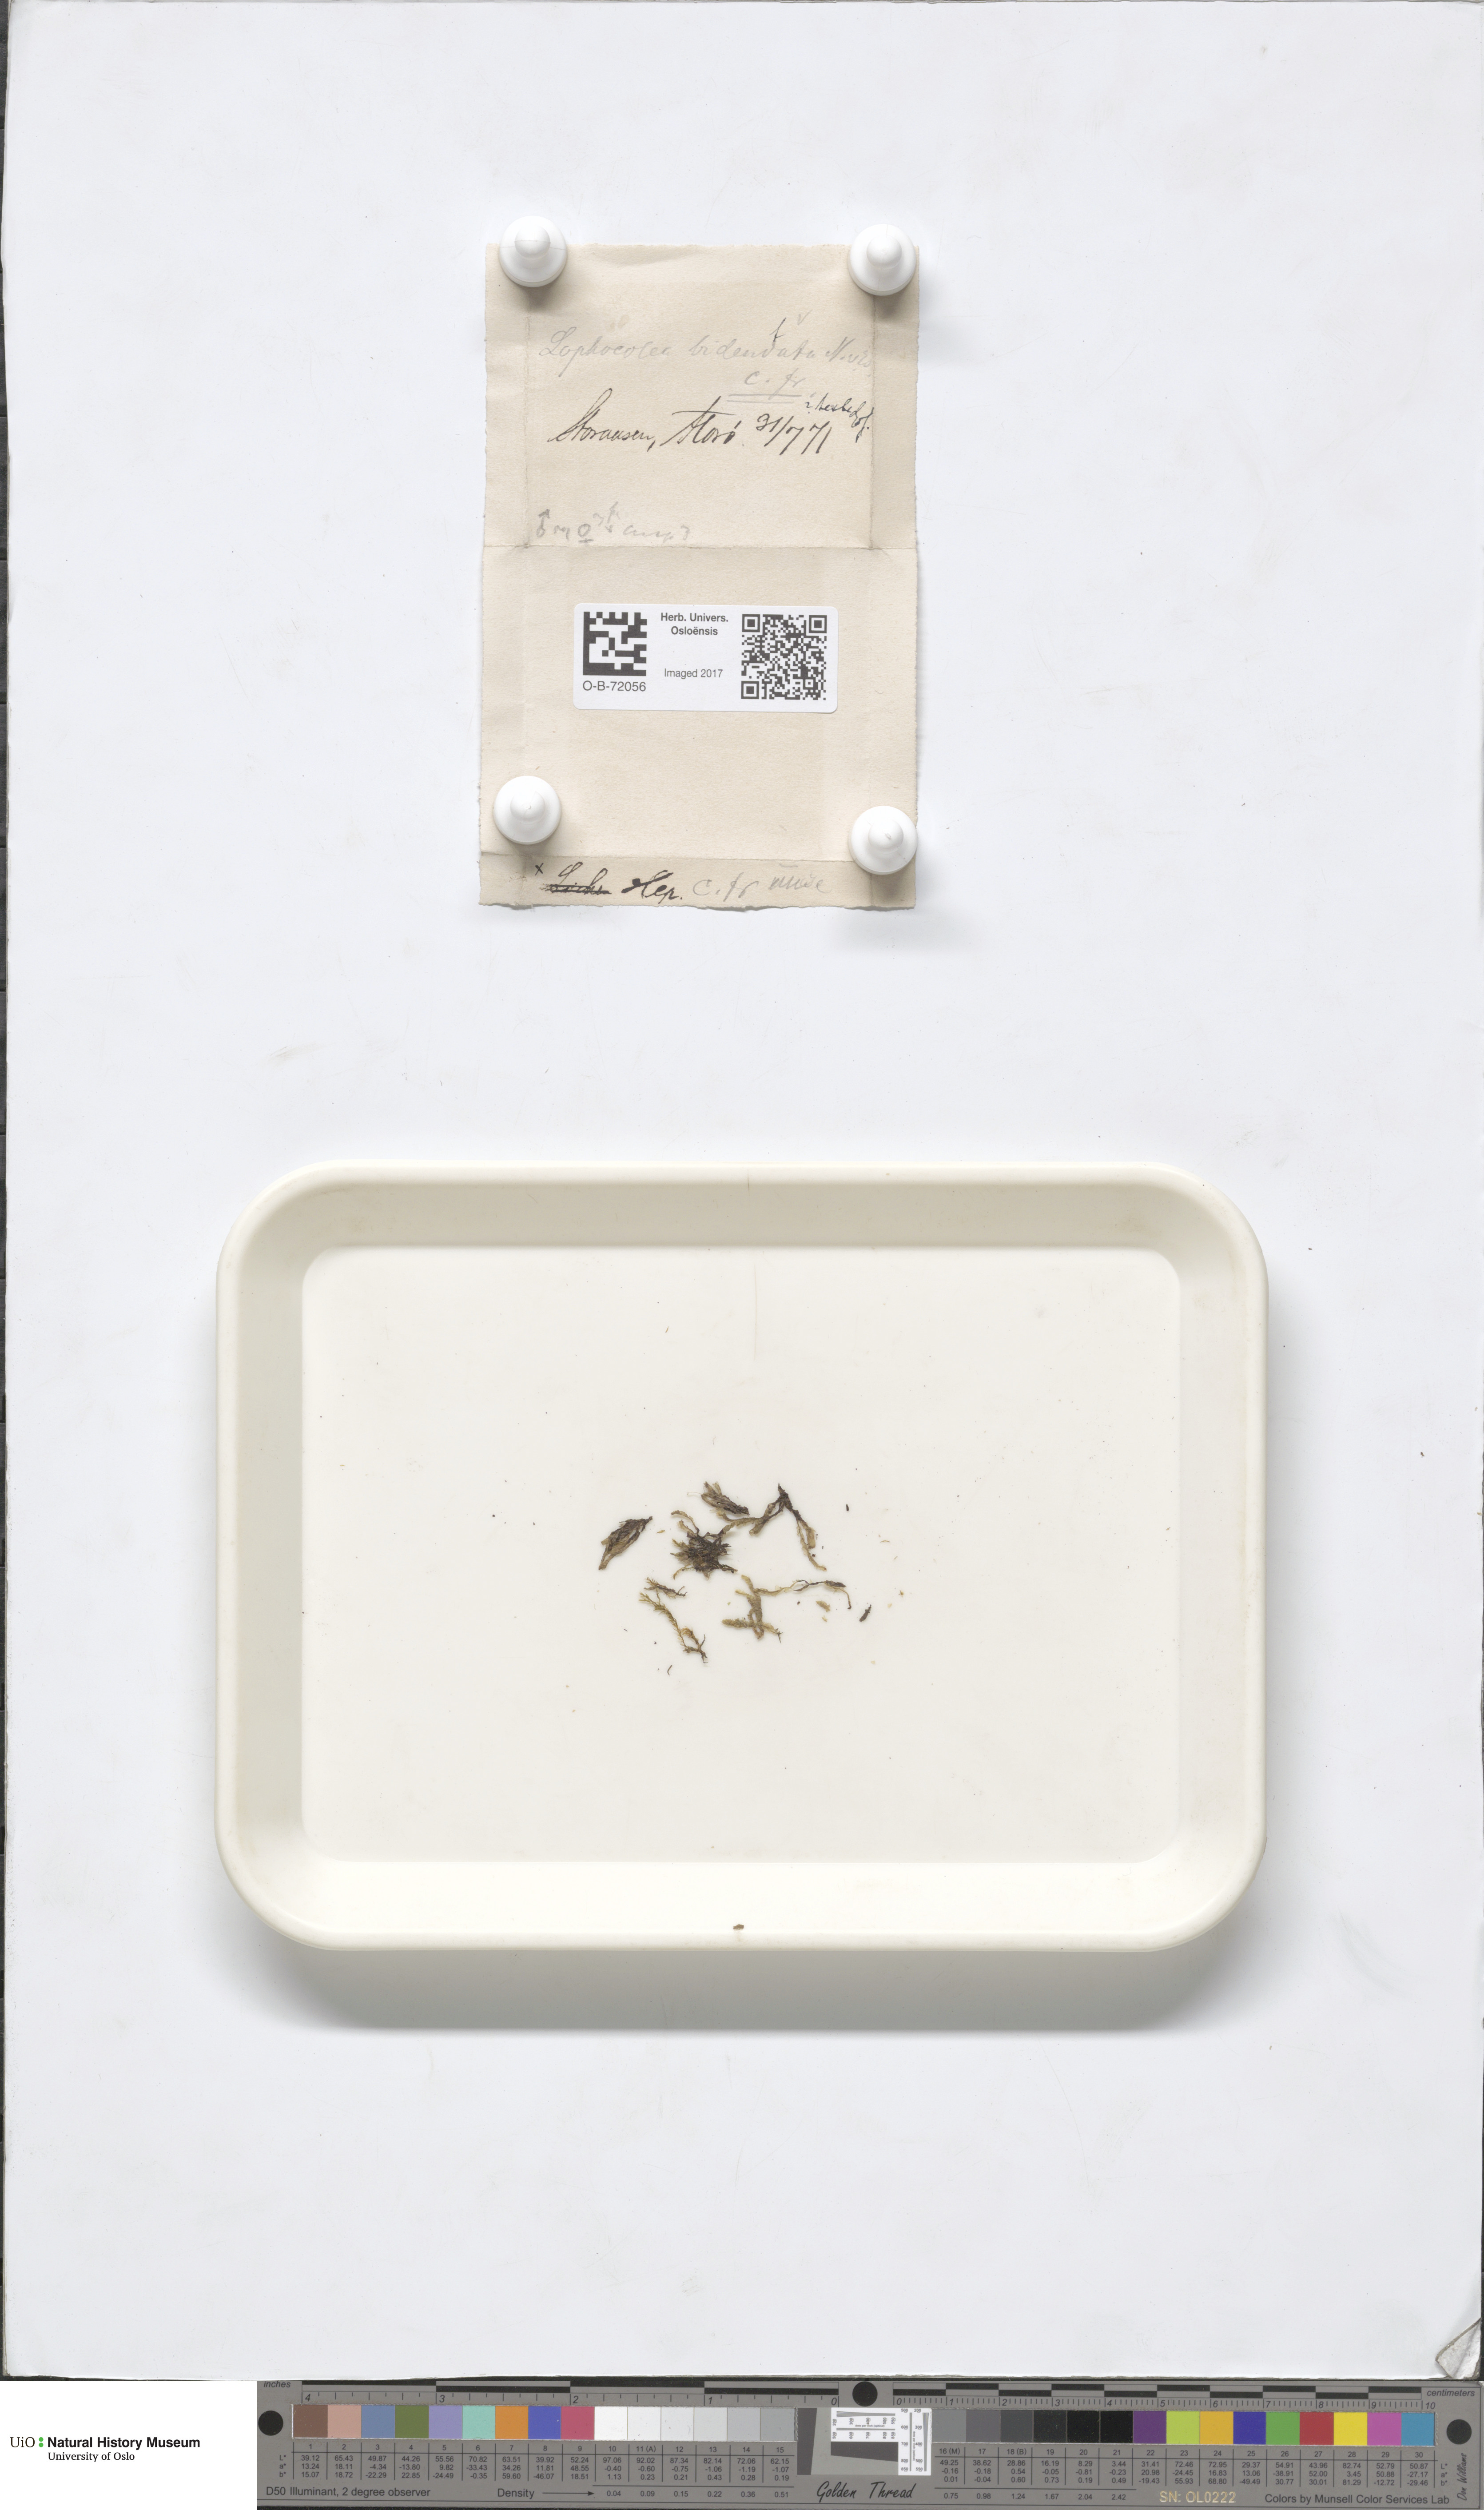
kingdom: Plantae
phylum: Marchantiophyta
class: Jungermanniopsida
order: Jungermanniales
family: Lophocoleaceae
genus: Lophocolea
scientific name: Lophocolea coadunata
